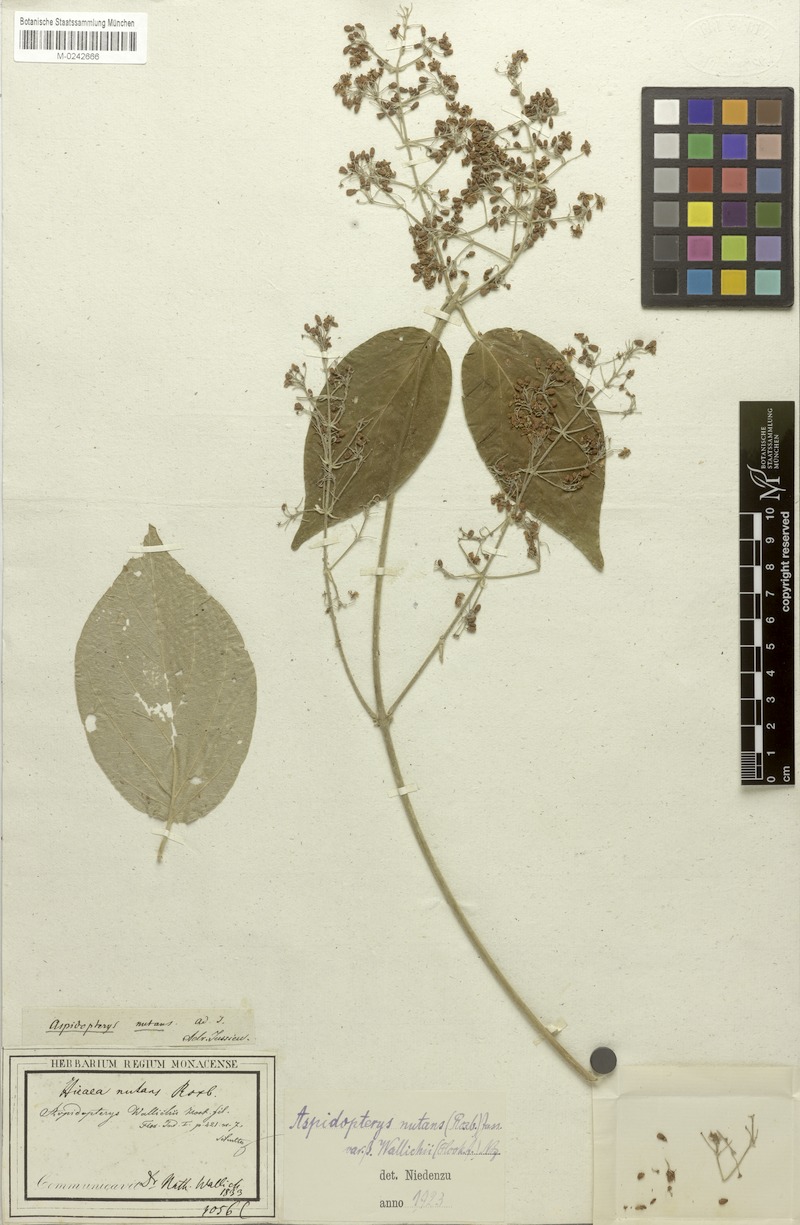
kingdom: Plantae
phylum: Tracheophyta
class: Magnoliopsida
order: Malpighiales
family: Malpighiaceae
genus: Aspidopterys
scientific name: Aspidopterys wallichii
